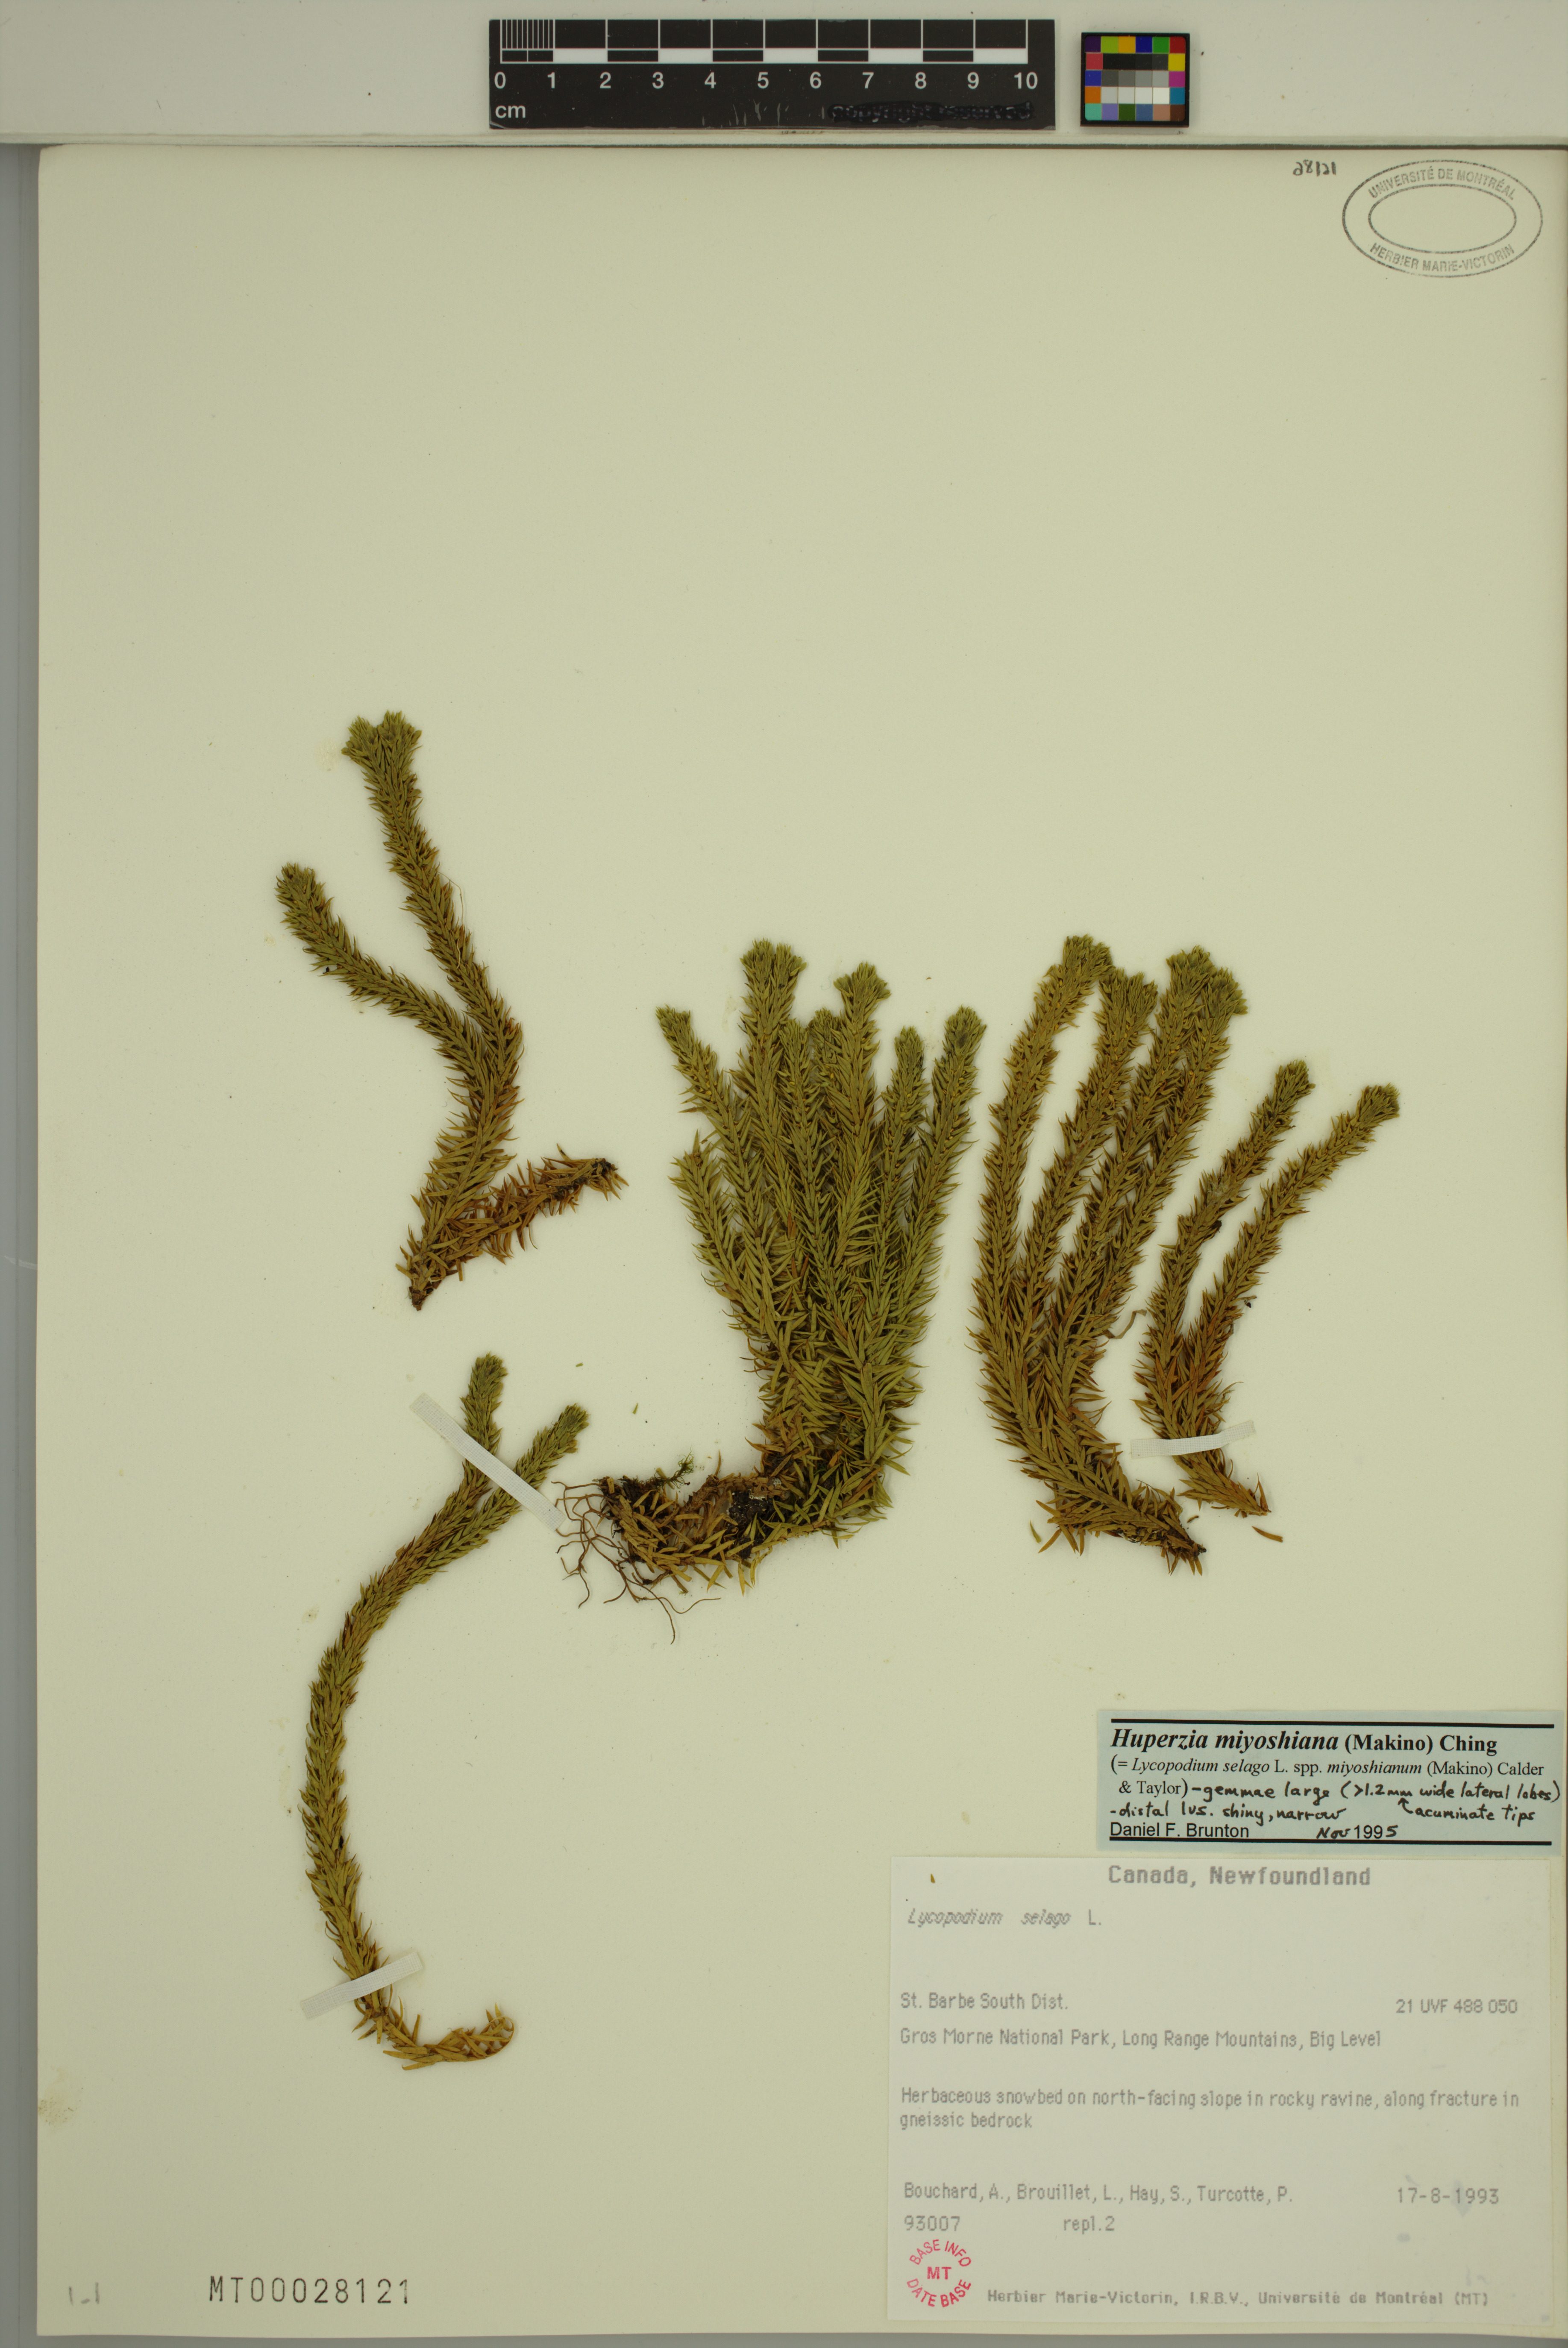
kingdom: Plantae
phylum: Tracheophyta
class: Lycopodiopsida
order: Lycopodiales
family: Lycopodiaceae
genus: Huperzia
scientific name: Huperzia miyoshiana
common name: Chinese clubmoss
